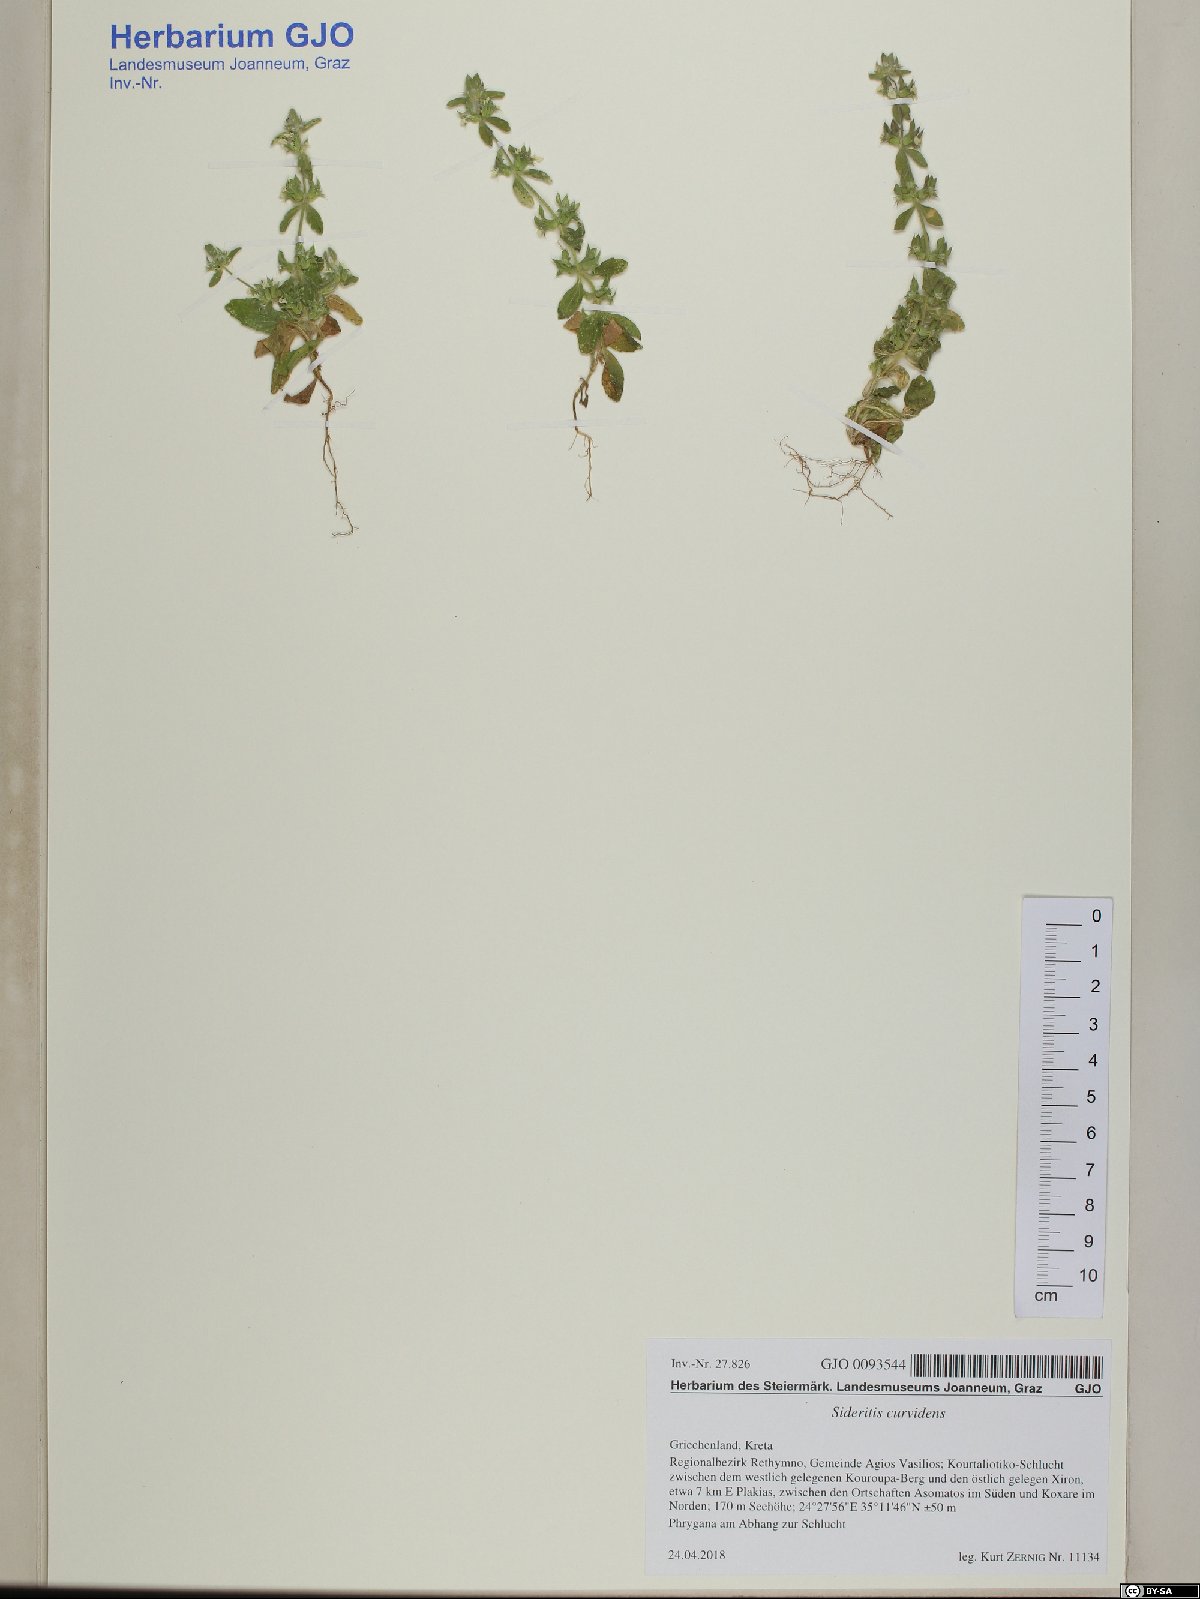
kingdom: Plantae
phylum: Tracheophyta
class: Magnoliopsida
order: Lamiales
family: Lamiaceae
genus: Sideritis
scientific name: Sideritis romana
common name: Simplebeak ironwort
